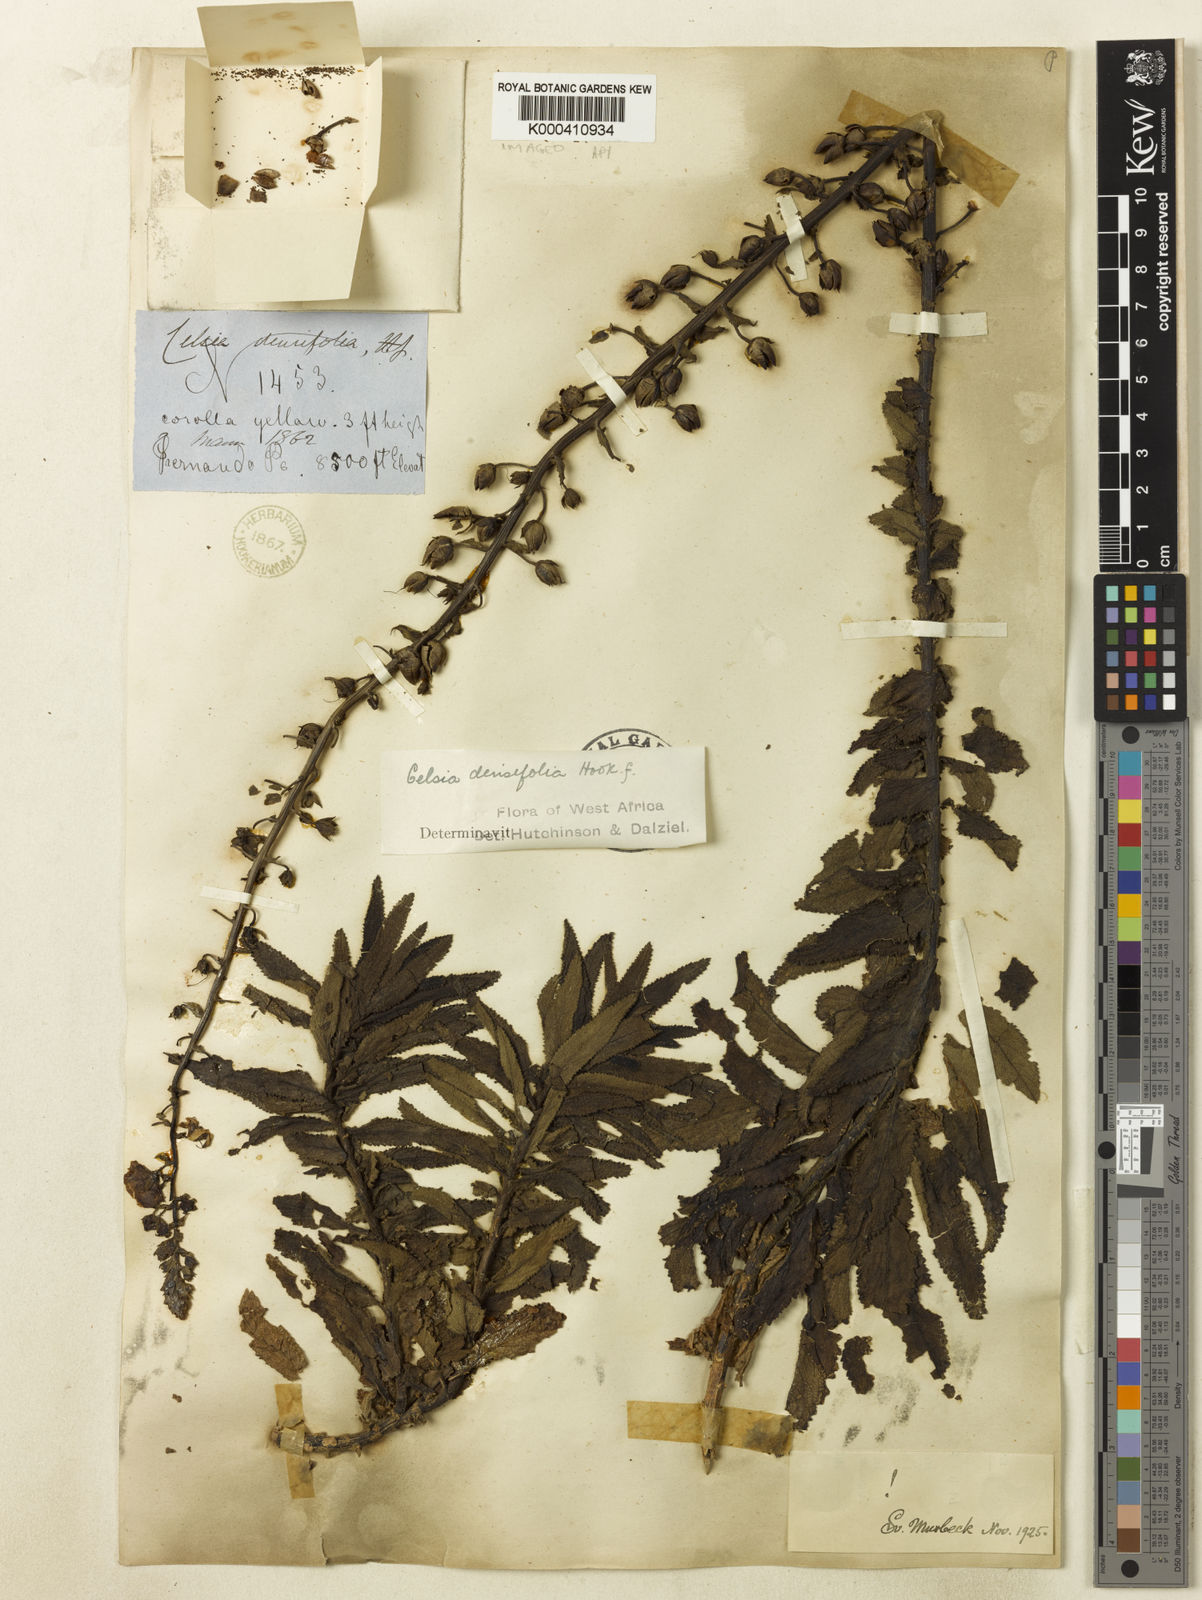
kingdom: Plantae
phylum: Tracheophyta
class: Magnoliopsida
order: Lamiales
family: Scrophulariaceae
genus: Rhabdotosperma
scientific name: Rhabdotosperma densifolia
